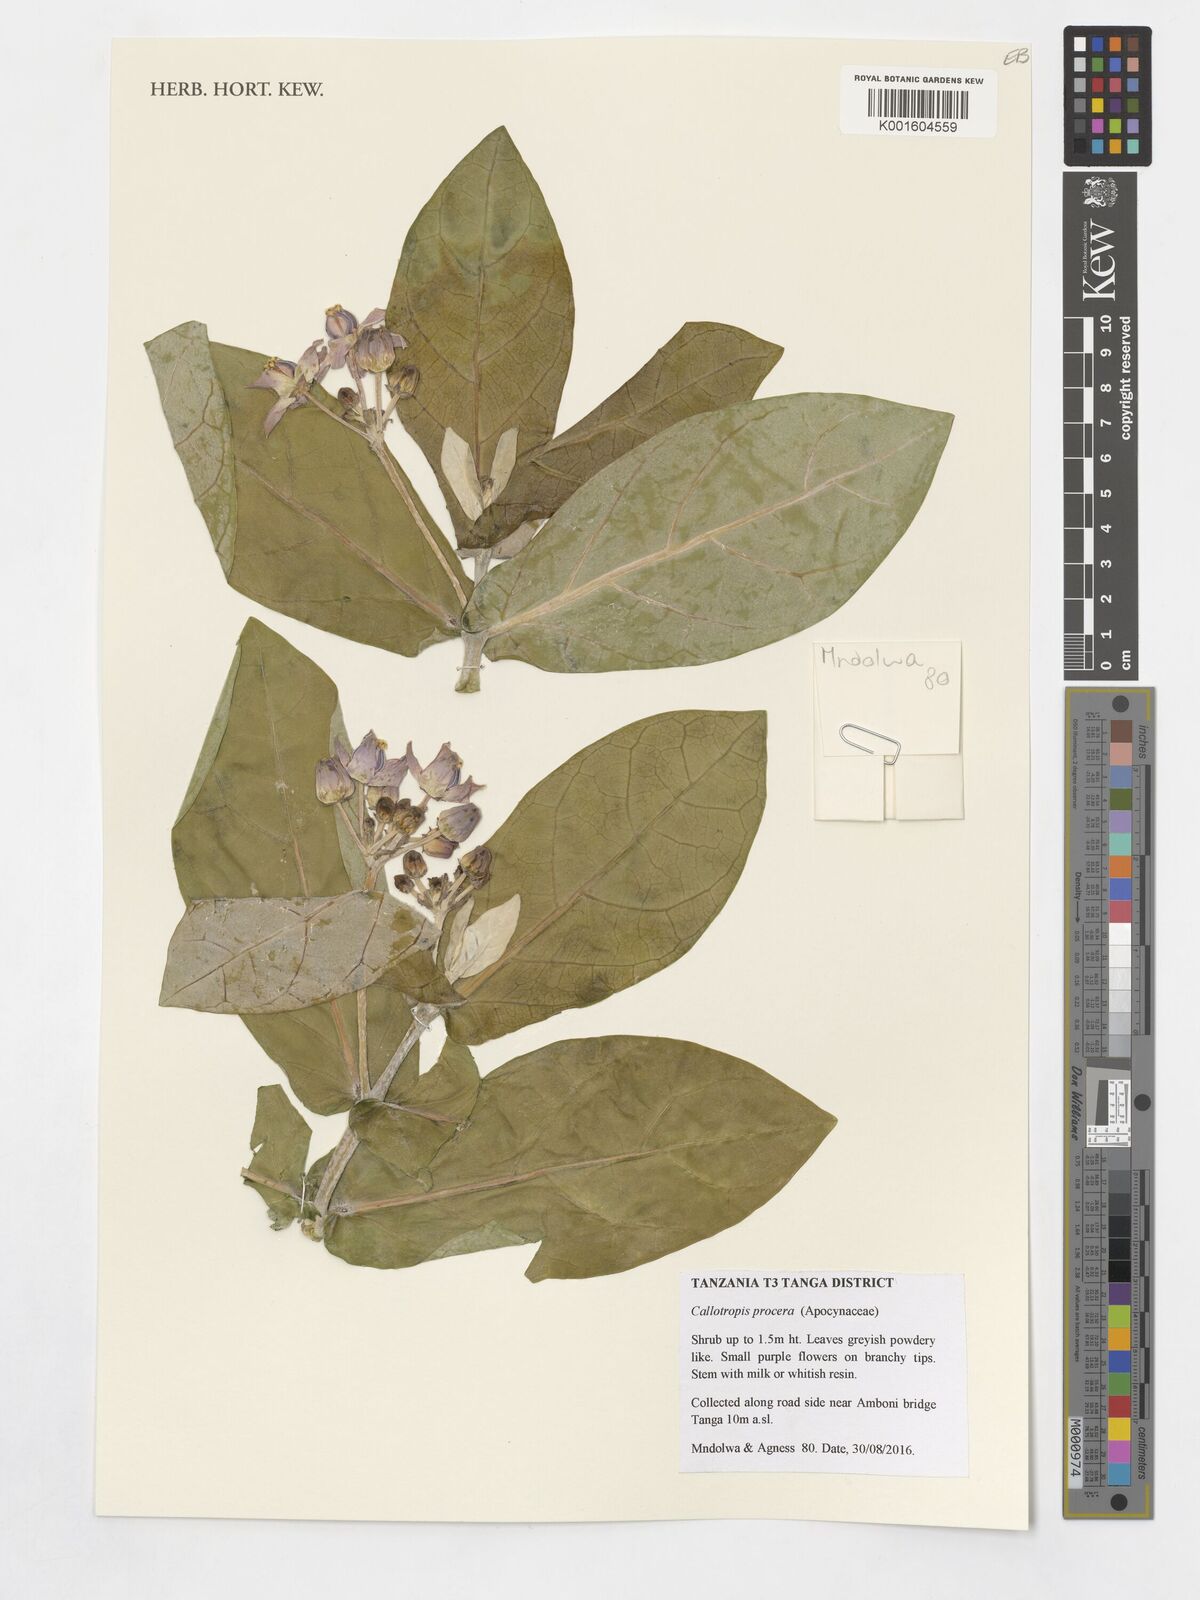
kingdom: Plantae
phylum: Tracheophyta
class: Magnoliopsida
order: Gentianales
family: Apocynaceae
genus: Calotropis
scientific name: Calotropis gigantea
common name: Crown flower
